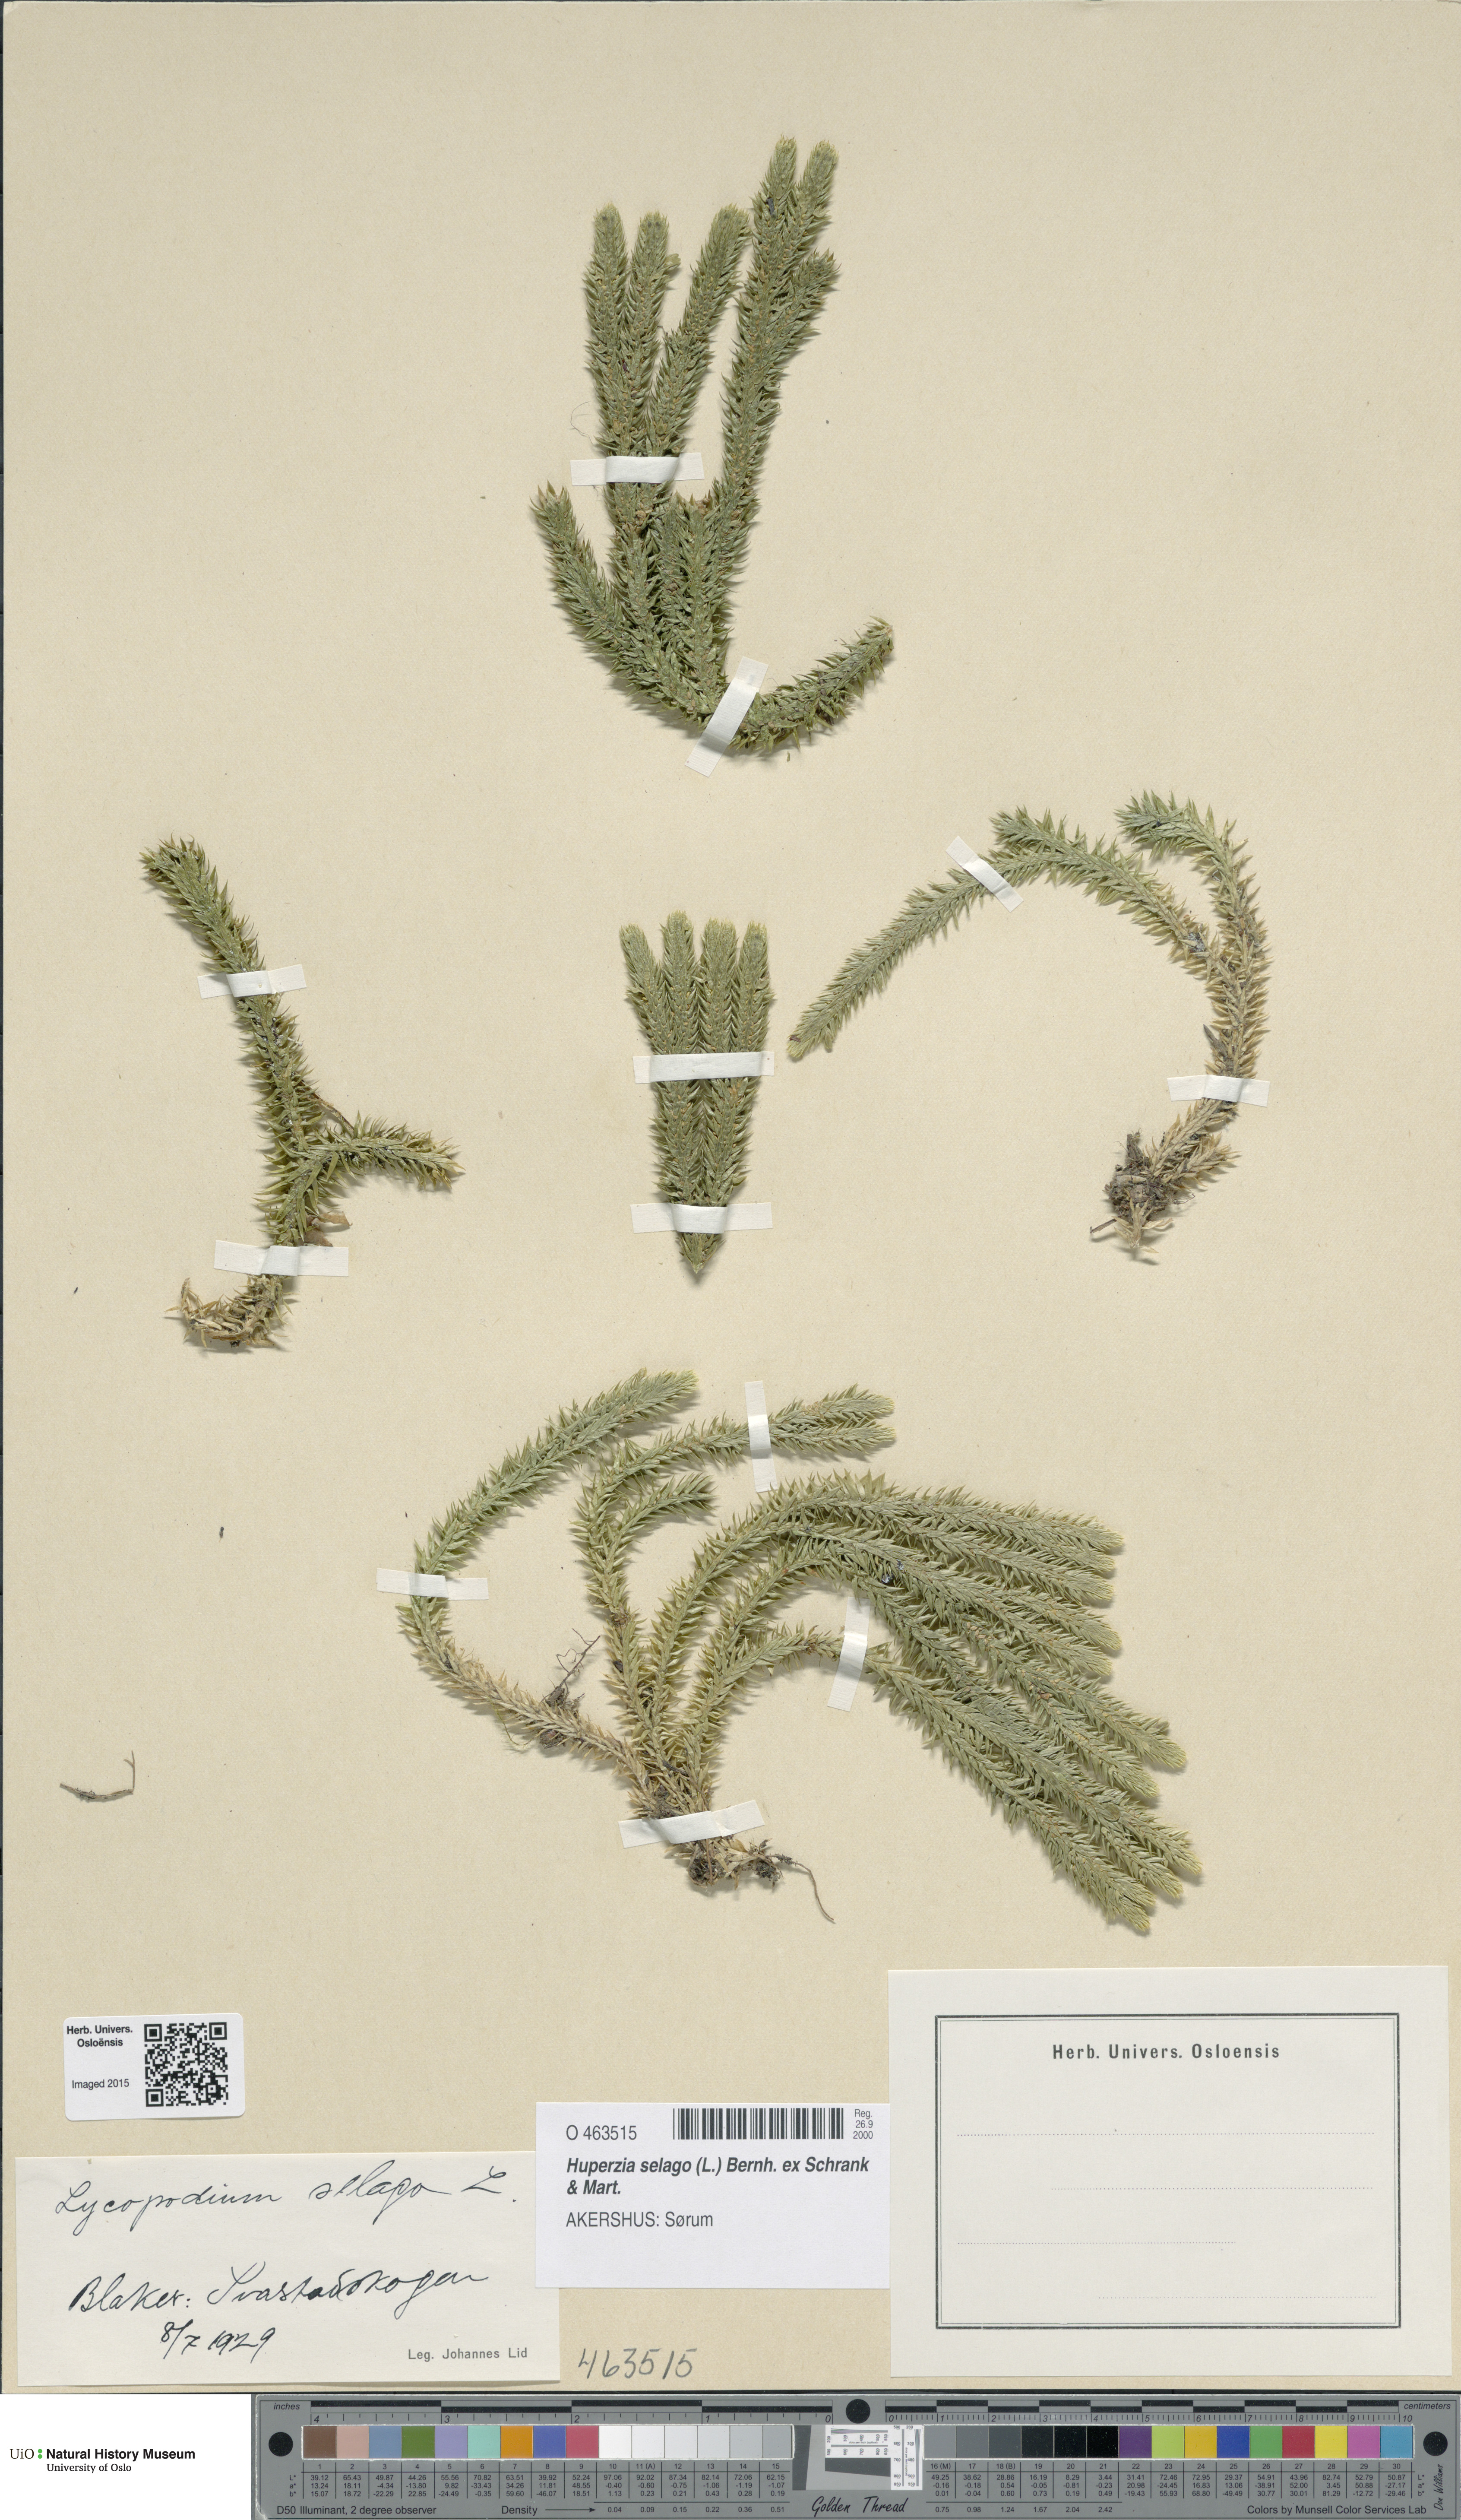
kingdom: Plantae
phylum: Tracheophyta
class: Lycopodiopsida
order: Lycopodiales
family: Lycopodiaceae
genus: Huperzia
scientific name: Huperzia selago
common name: Northern firmoss
